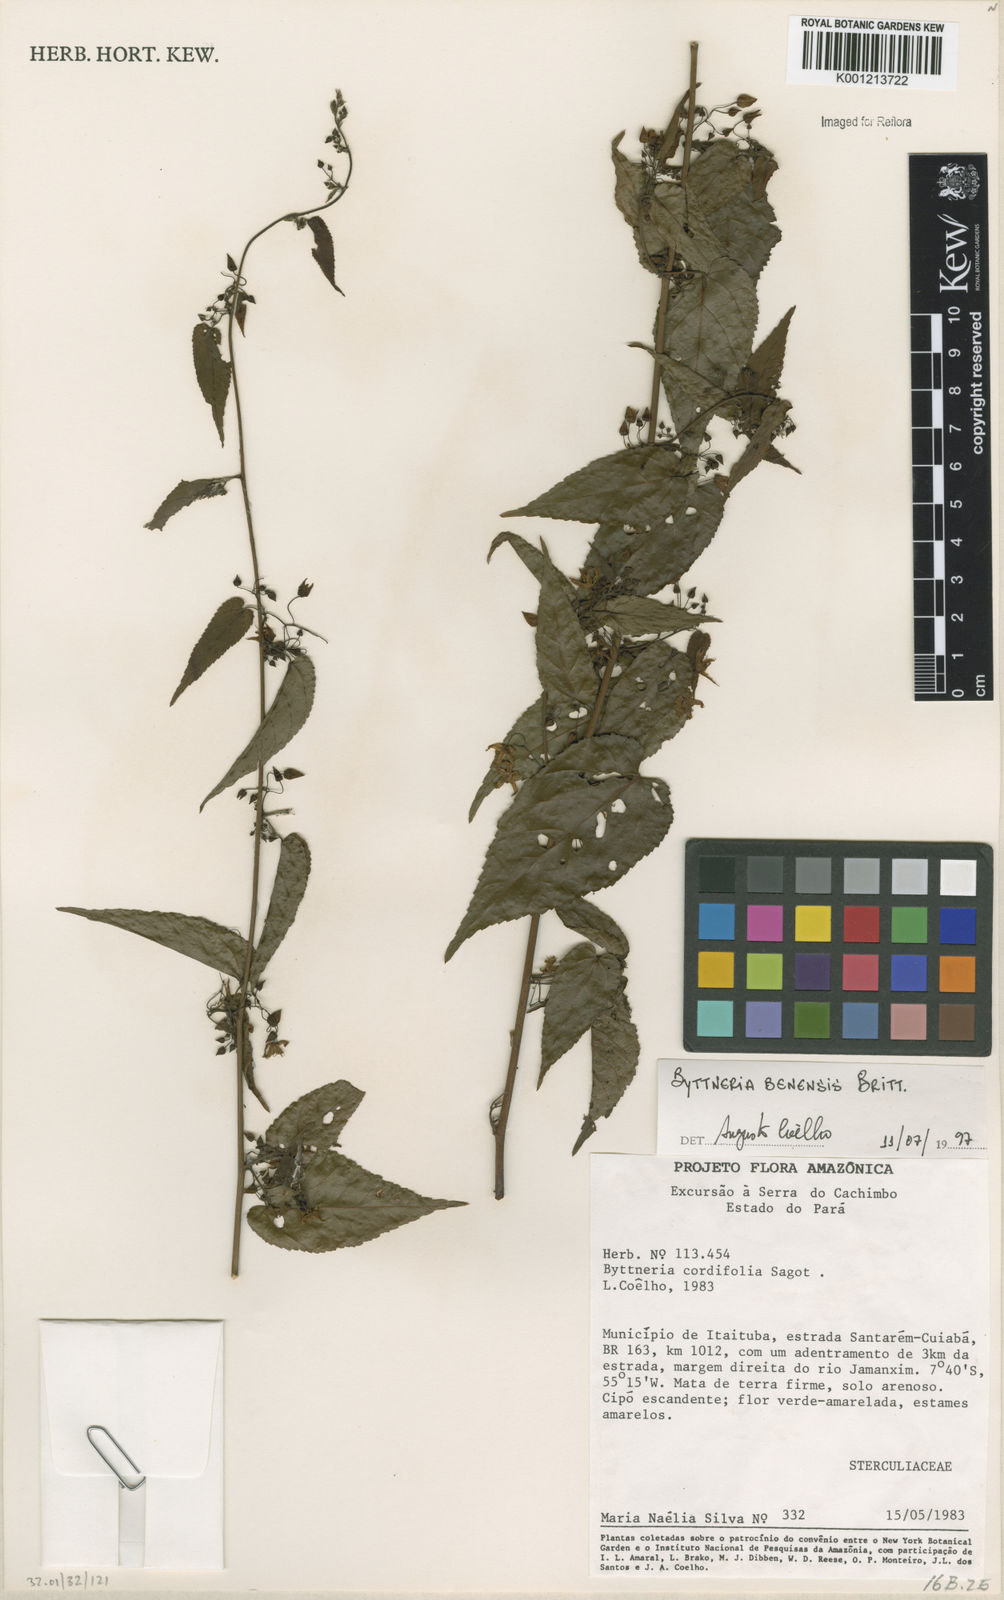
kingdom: Plantae
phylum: Tracheophyta
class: Magnoliopsida
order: Malvales
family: Malvaceae
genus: Byttneria
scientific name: Byttneria benensis
